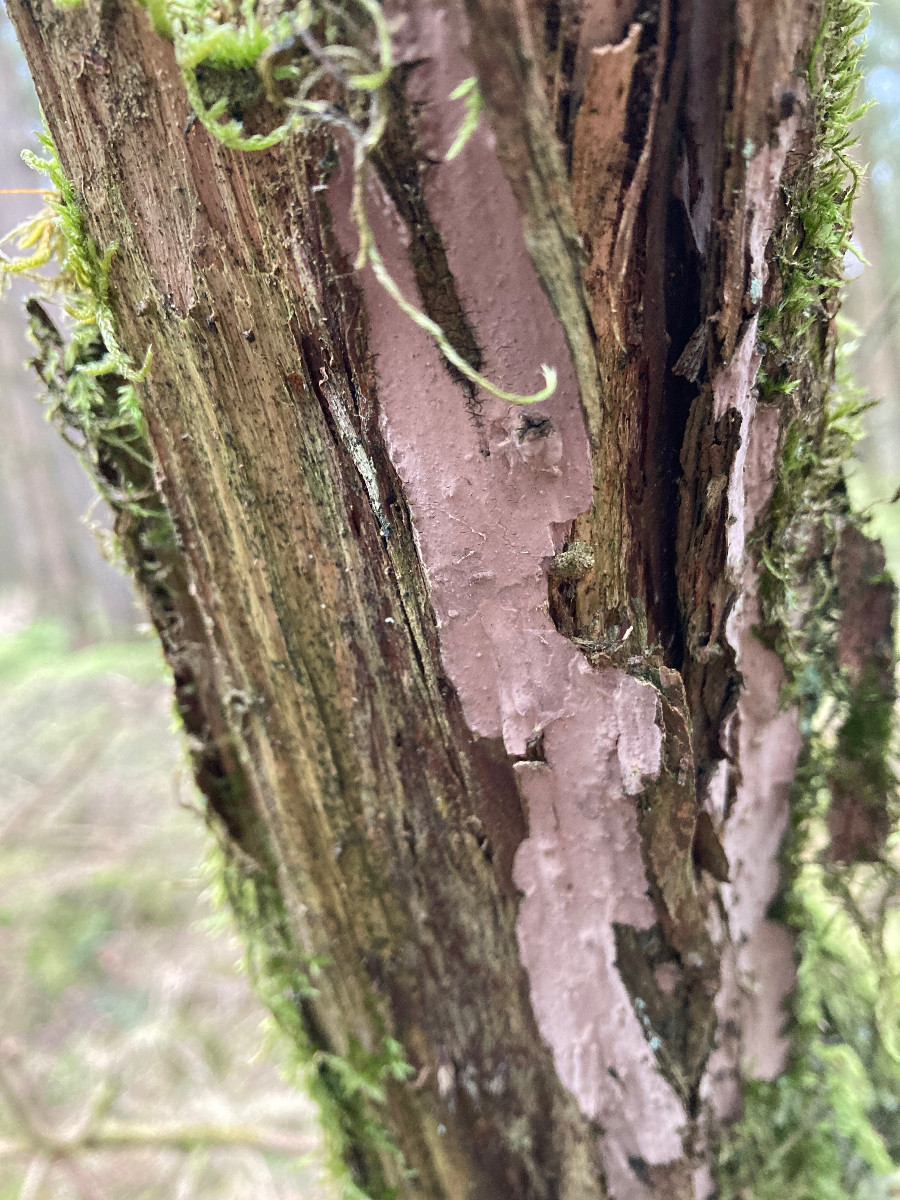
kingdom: Fungi
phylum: Basidiomycota
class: Agaricomycetes
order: Russulales
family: Echinodontiaceae
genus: Amylostereum
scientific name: Amylostereum laevigatum
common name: ene-lædersvamp
